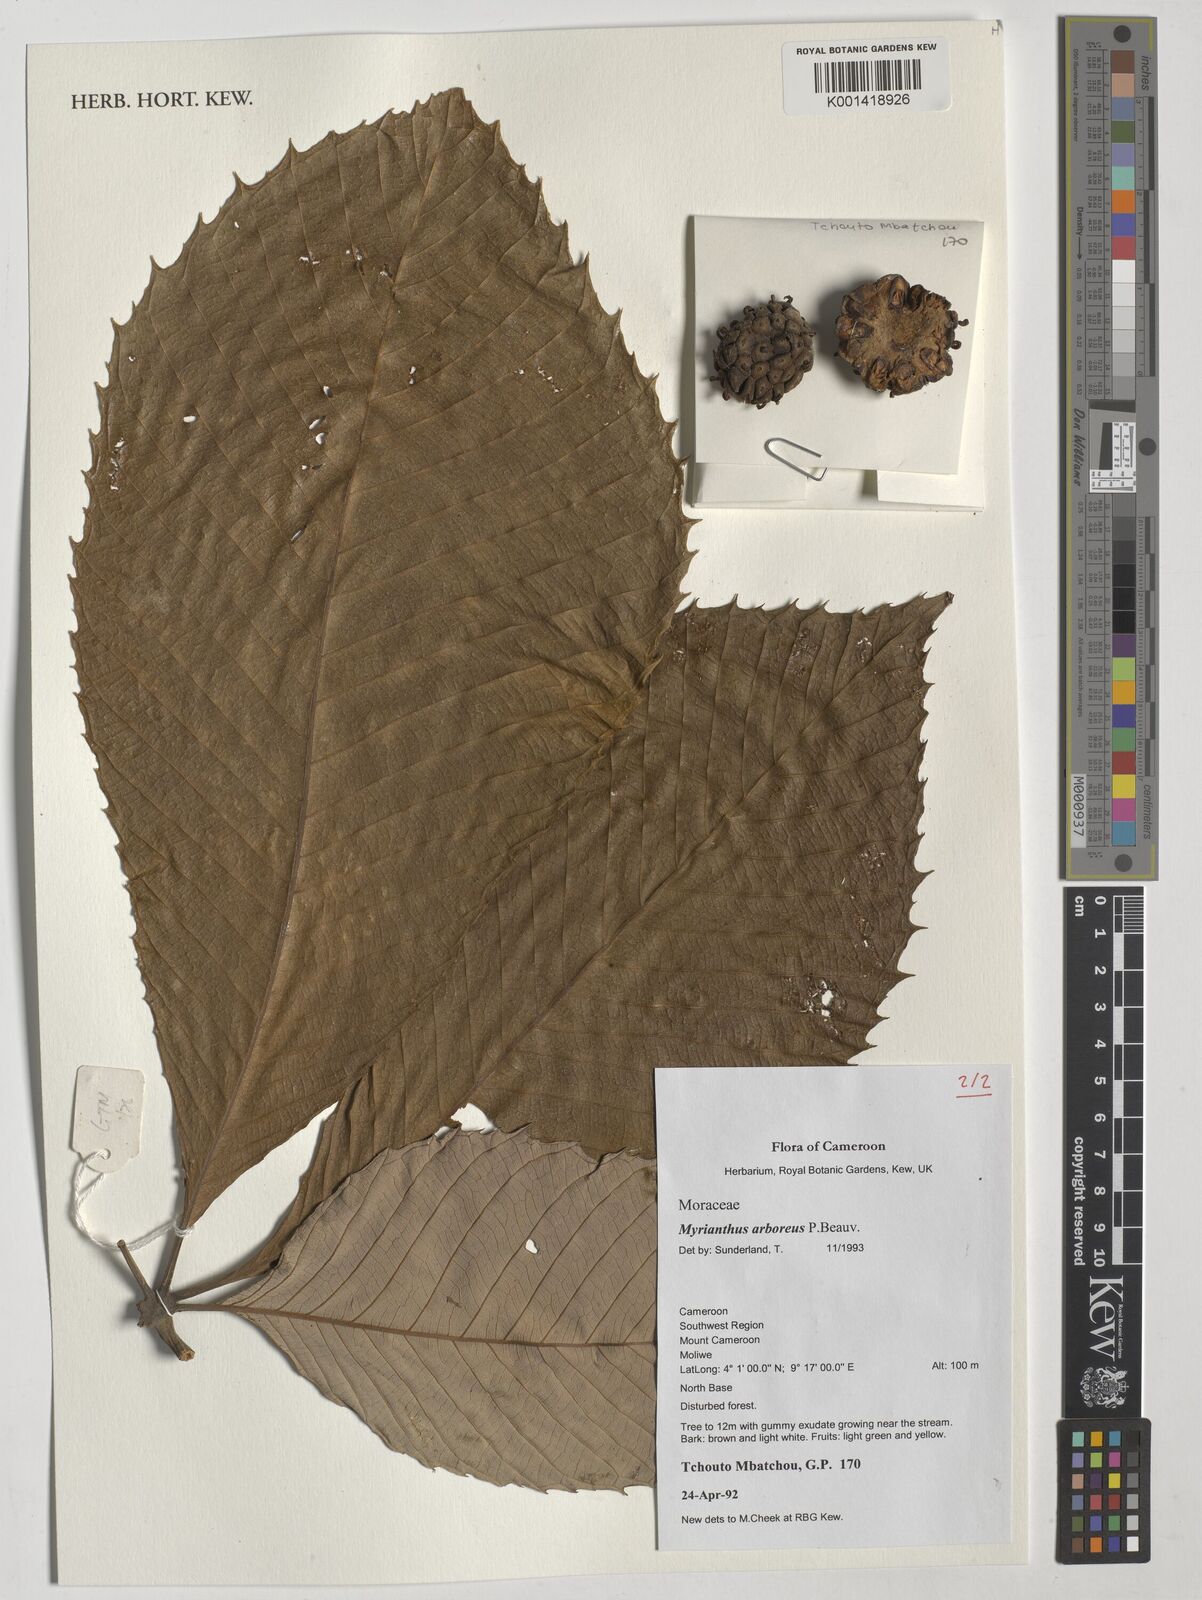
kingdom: Plantae
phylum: Tracheophyta
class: Magnoliopsida
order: Rosales
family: Urticaceae
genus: Myrianthus
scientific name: Myrianthus arboreus
